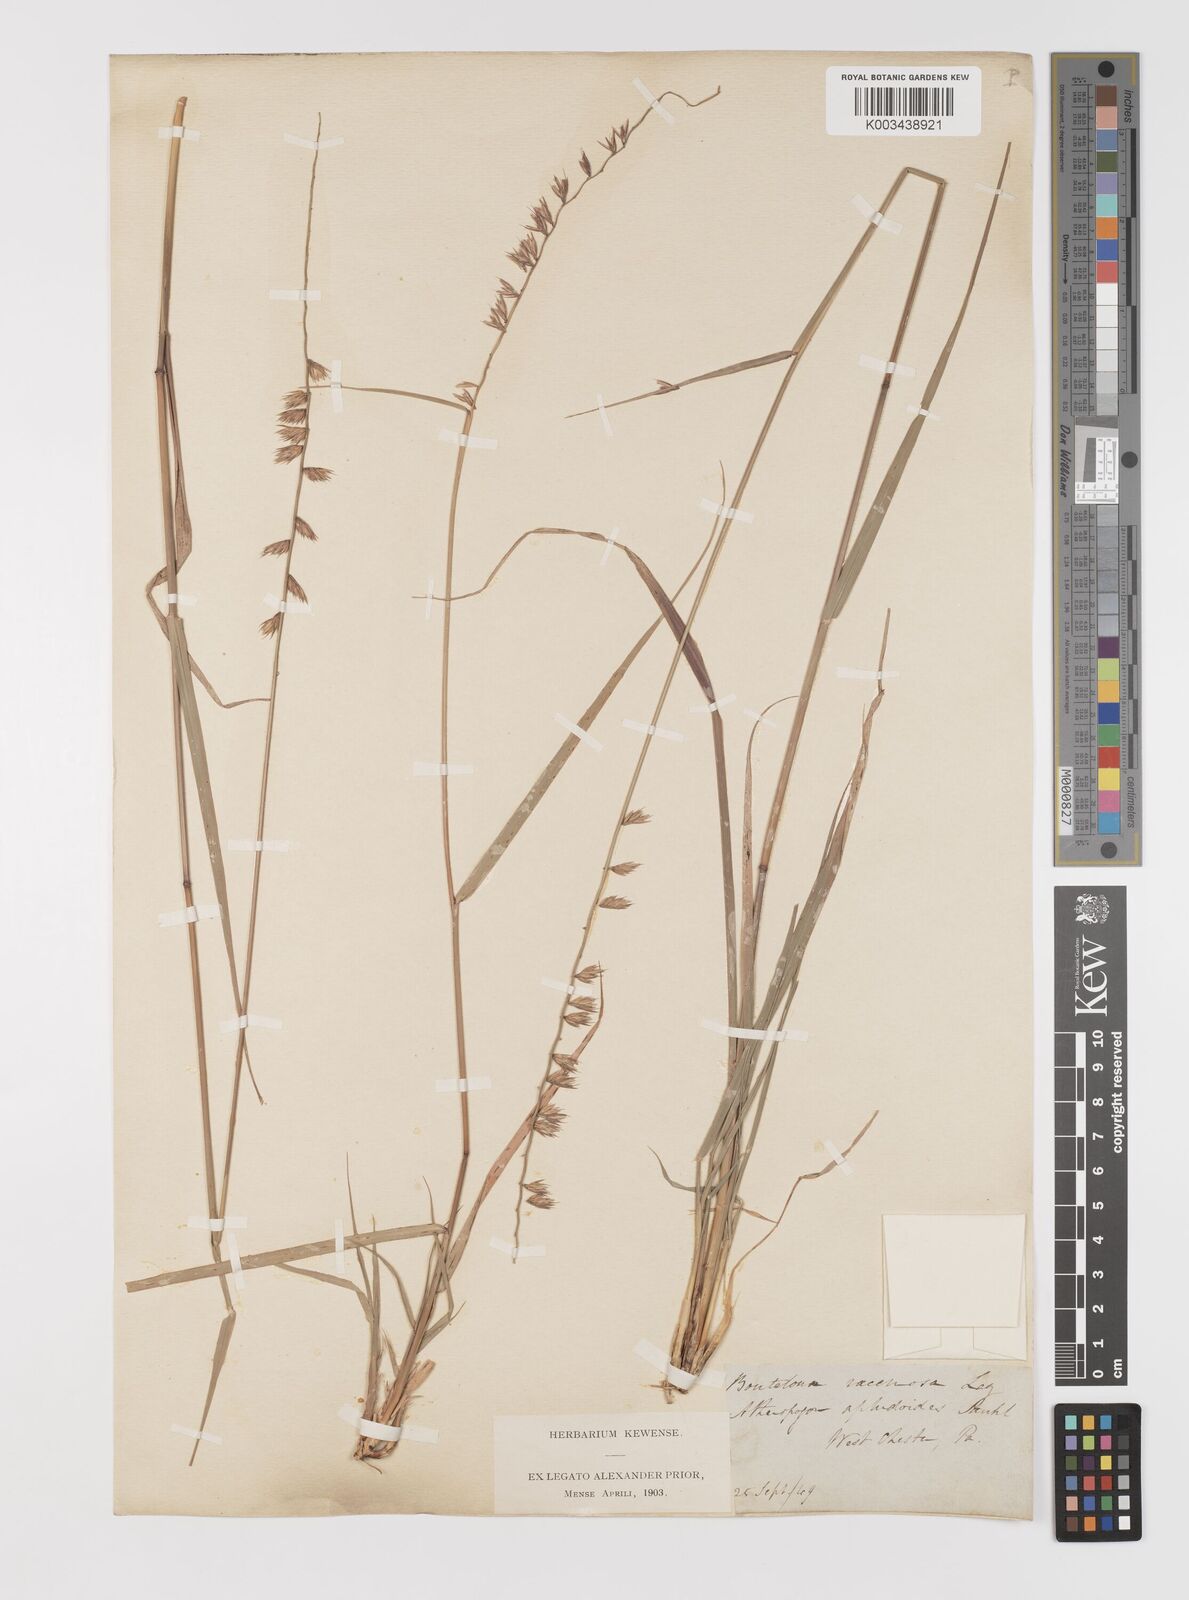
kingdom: Plantae
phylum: Tracheophyta
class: Liliopsida
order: Poales
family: Poaceae
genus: Bouteloua
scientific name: Bouteloua curtipendula
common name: Side-oats grama
